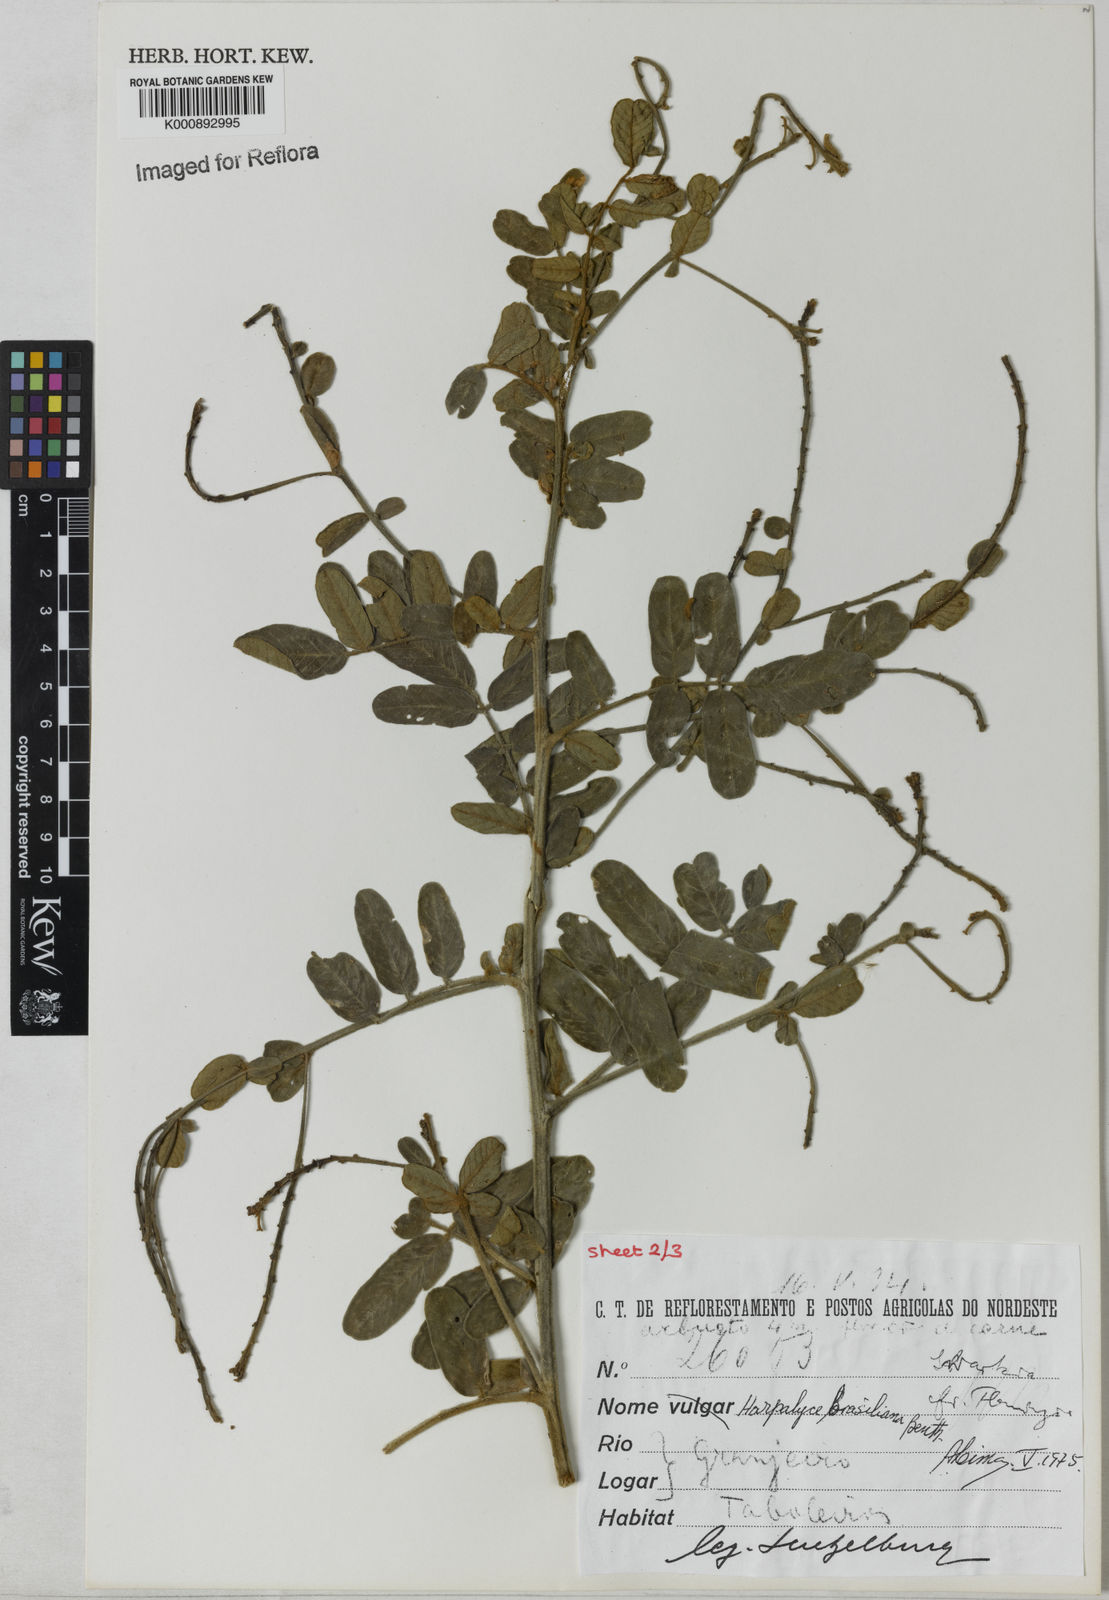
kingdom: Plantae
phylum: Tracheophyta
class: Magnoliopsida
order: Fabales
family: Fabaceae
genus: Harpalyce
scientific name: Harpalyce brasiliana
